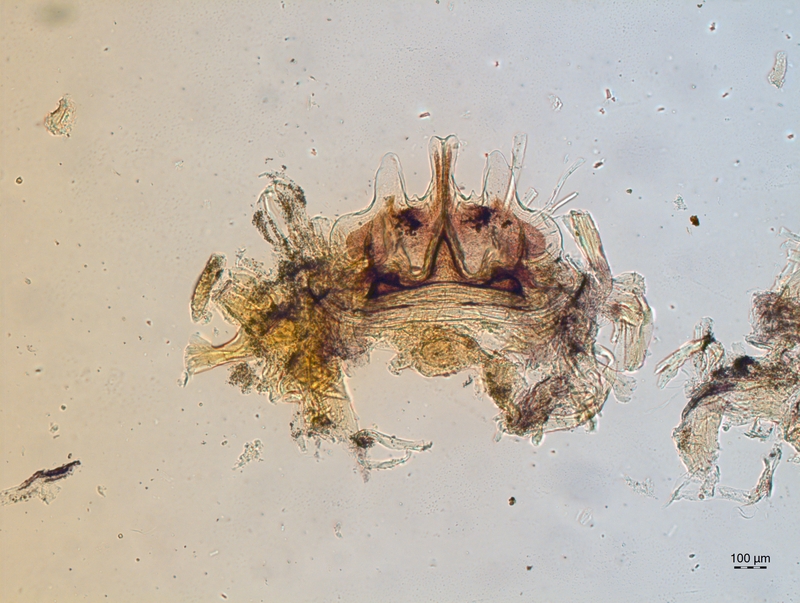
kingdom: Animalia
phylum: Arthropoda
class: Diplopoda
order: Chordeumatida
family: Craspedosomatidae
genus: Craspedosoma
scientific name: Craspedosoma alemannicum
